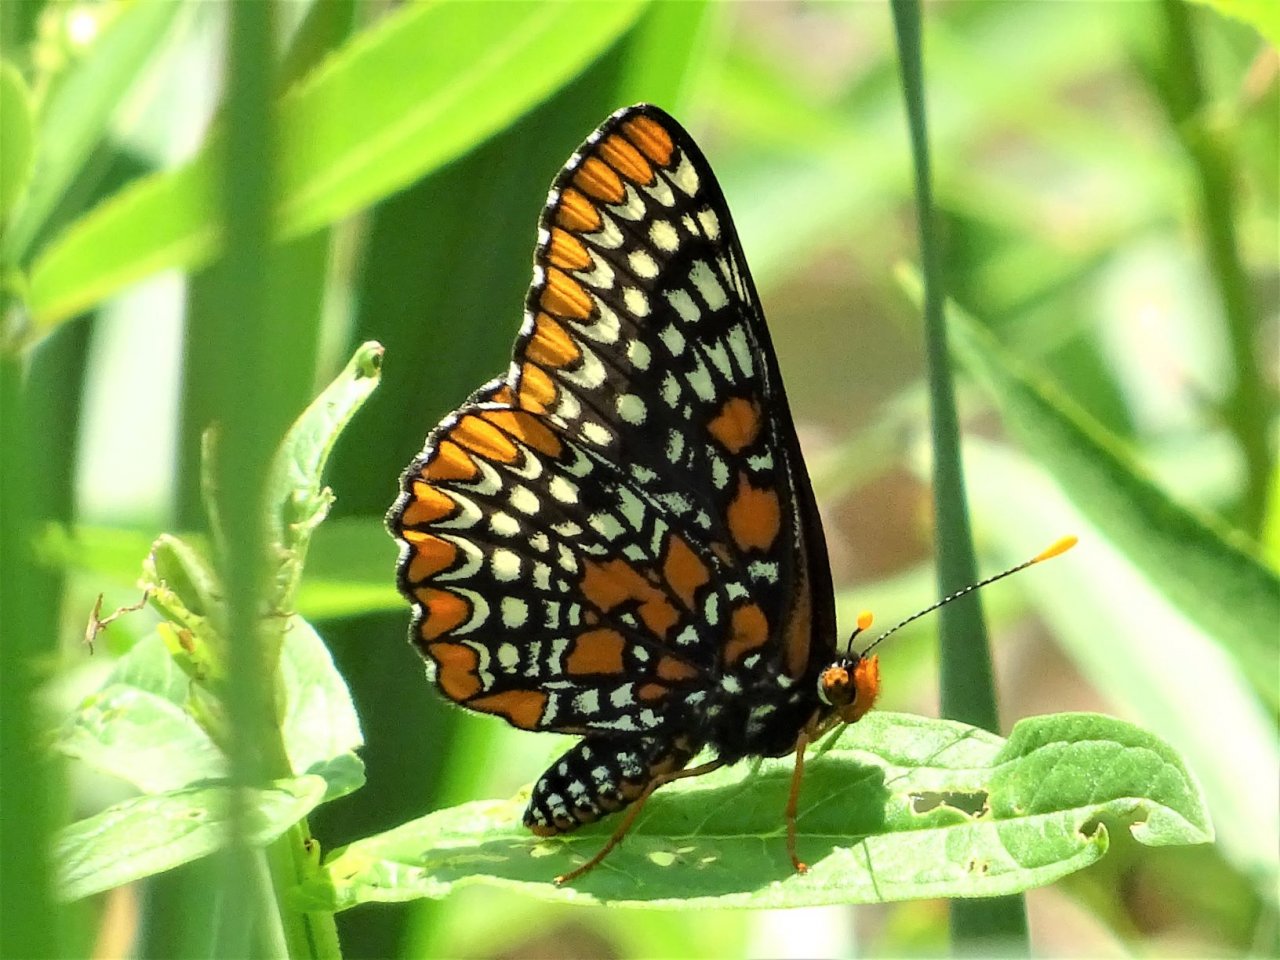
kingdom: Animalia
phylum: Arthropoda
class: Insecta
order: Lepidoptera
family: Nymphalidae
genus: Euphydryas
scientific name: Euphydryas phaeton
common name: Baltimore Checkerspot
